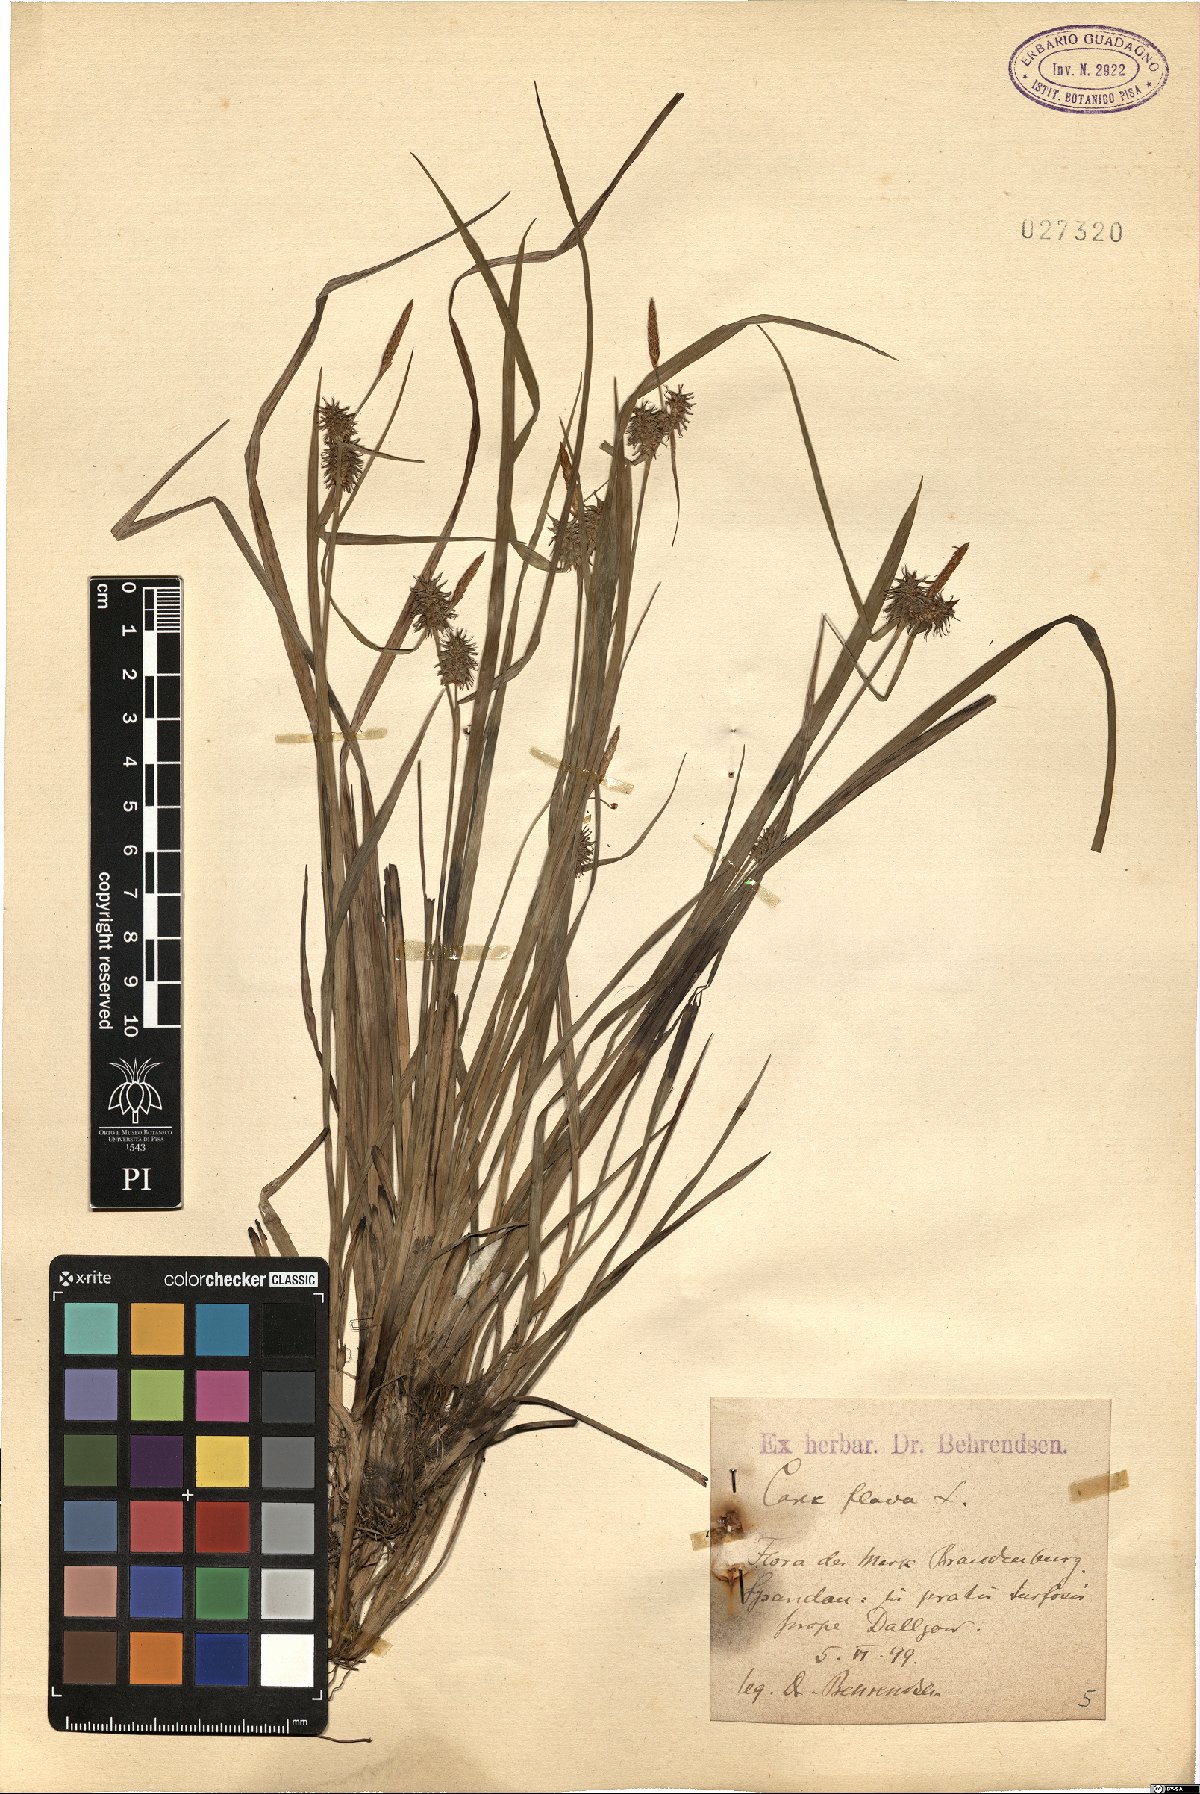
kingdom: Plantae
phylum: Tracheophyta
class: Liliopsida
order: Poales
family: Cyperaceae
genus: Carex
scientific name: Carex flava
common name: Large yellow-sedge
